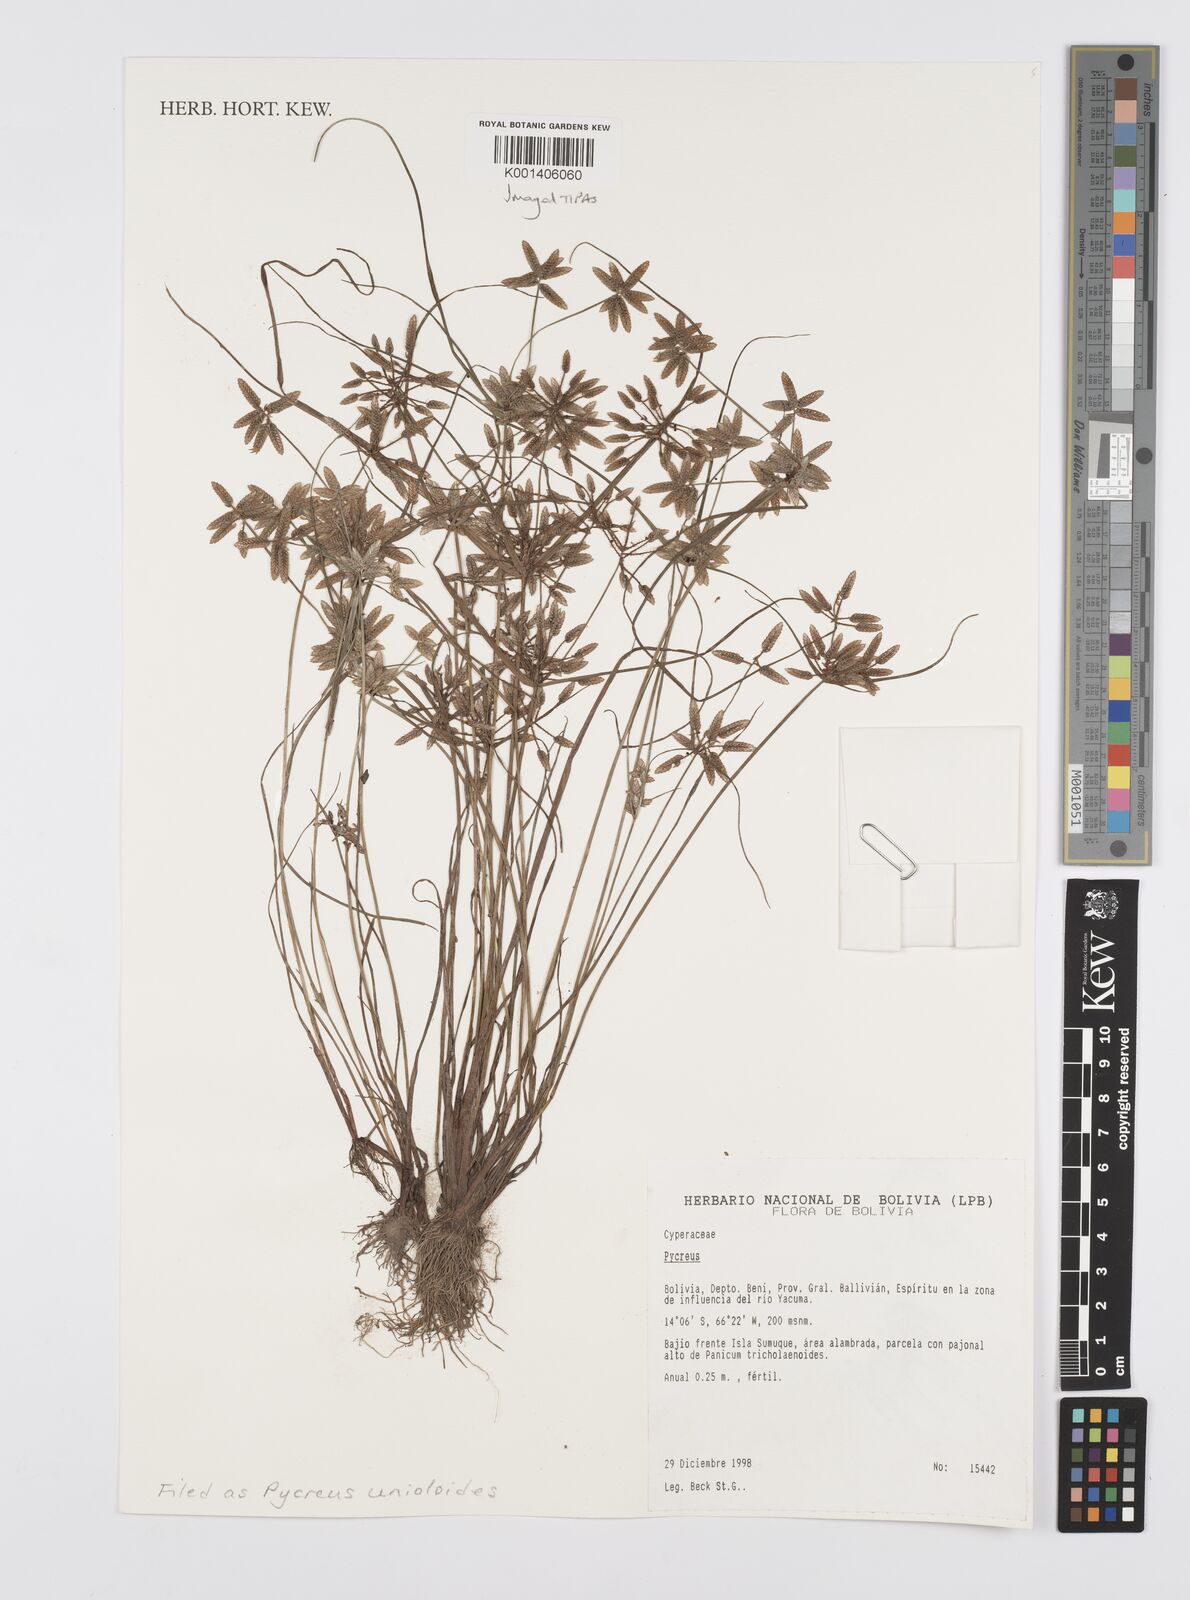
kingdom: Plantae
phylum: Tracheophyta
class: Liliopsida
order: Poales
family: Cyperaceae
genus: Cyperus
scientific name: Cyperus unioloides
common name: Uniola flatsedge
